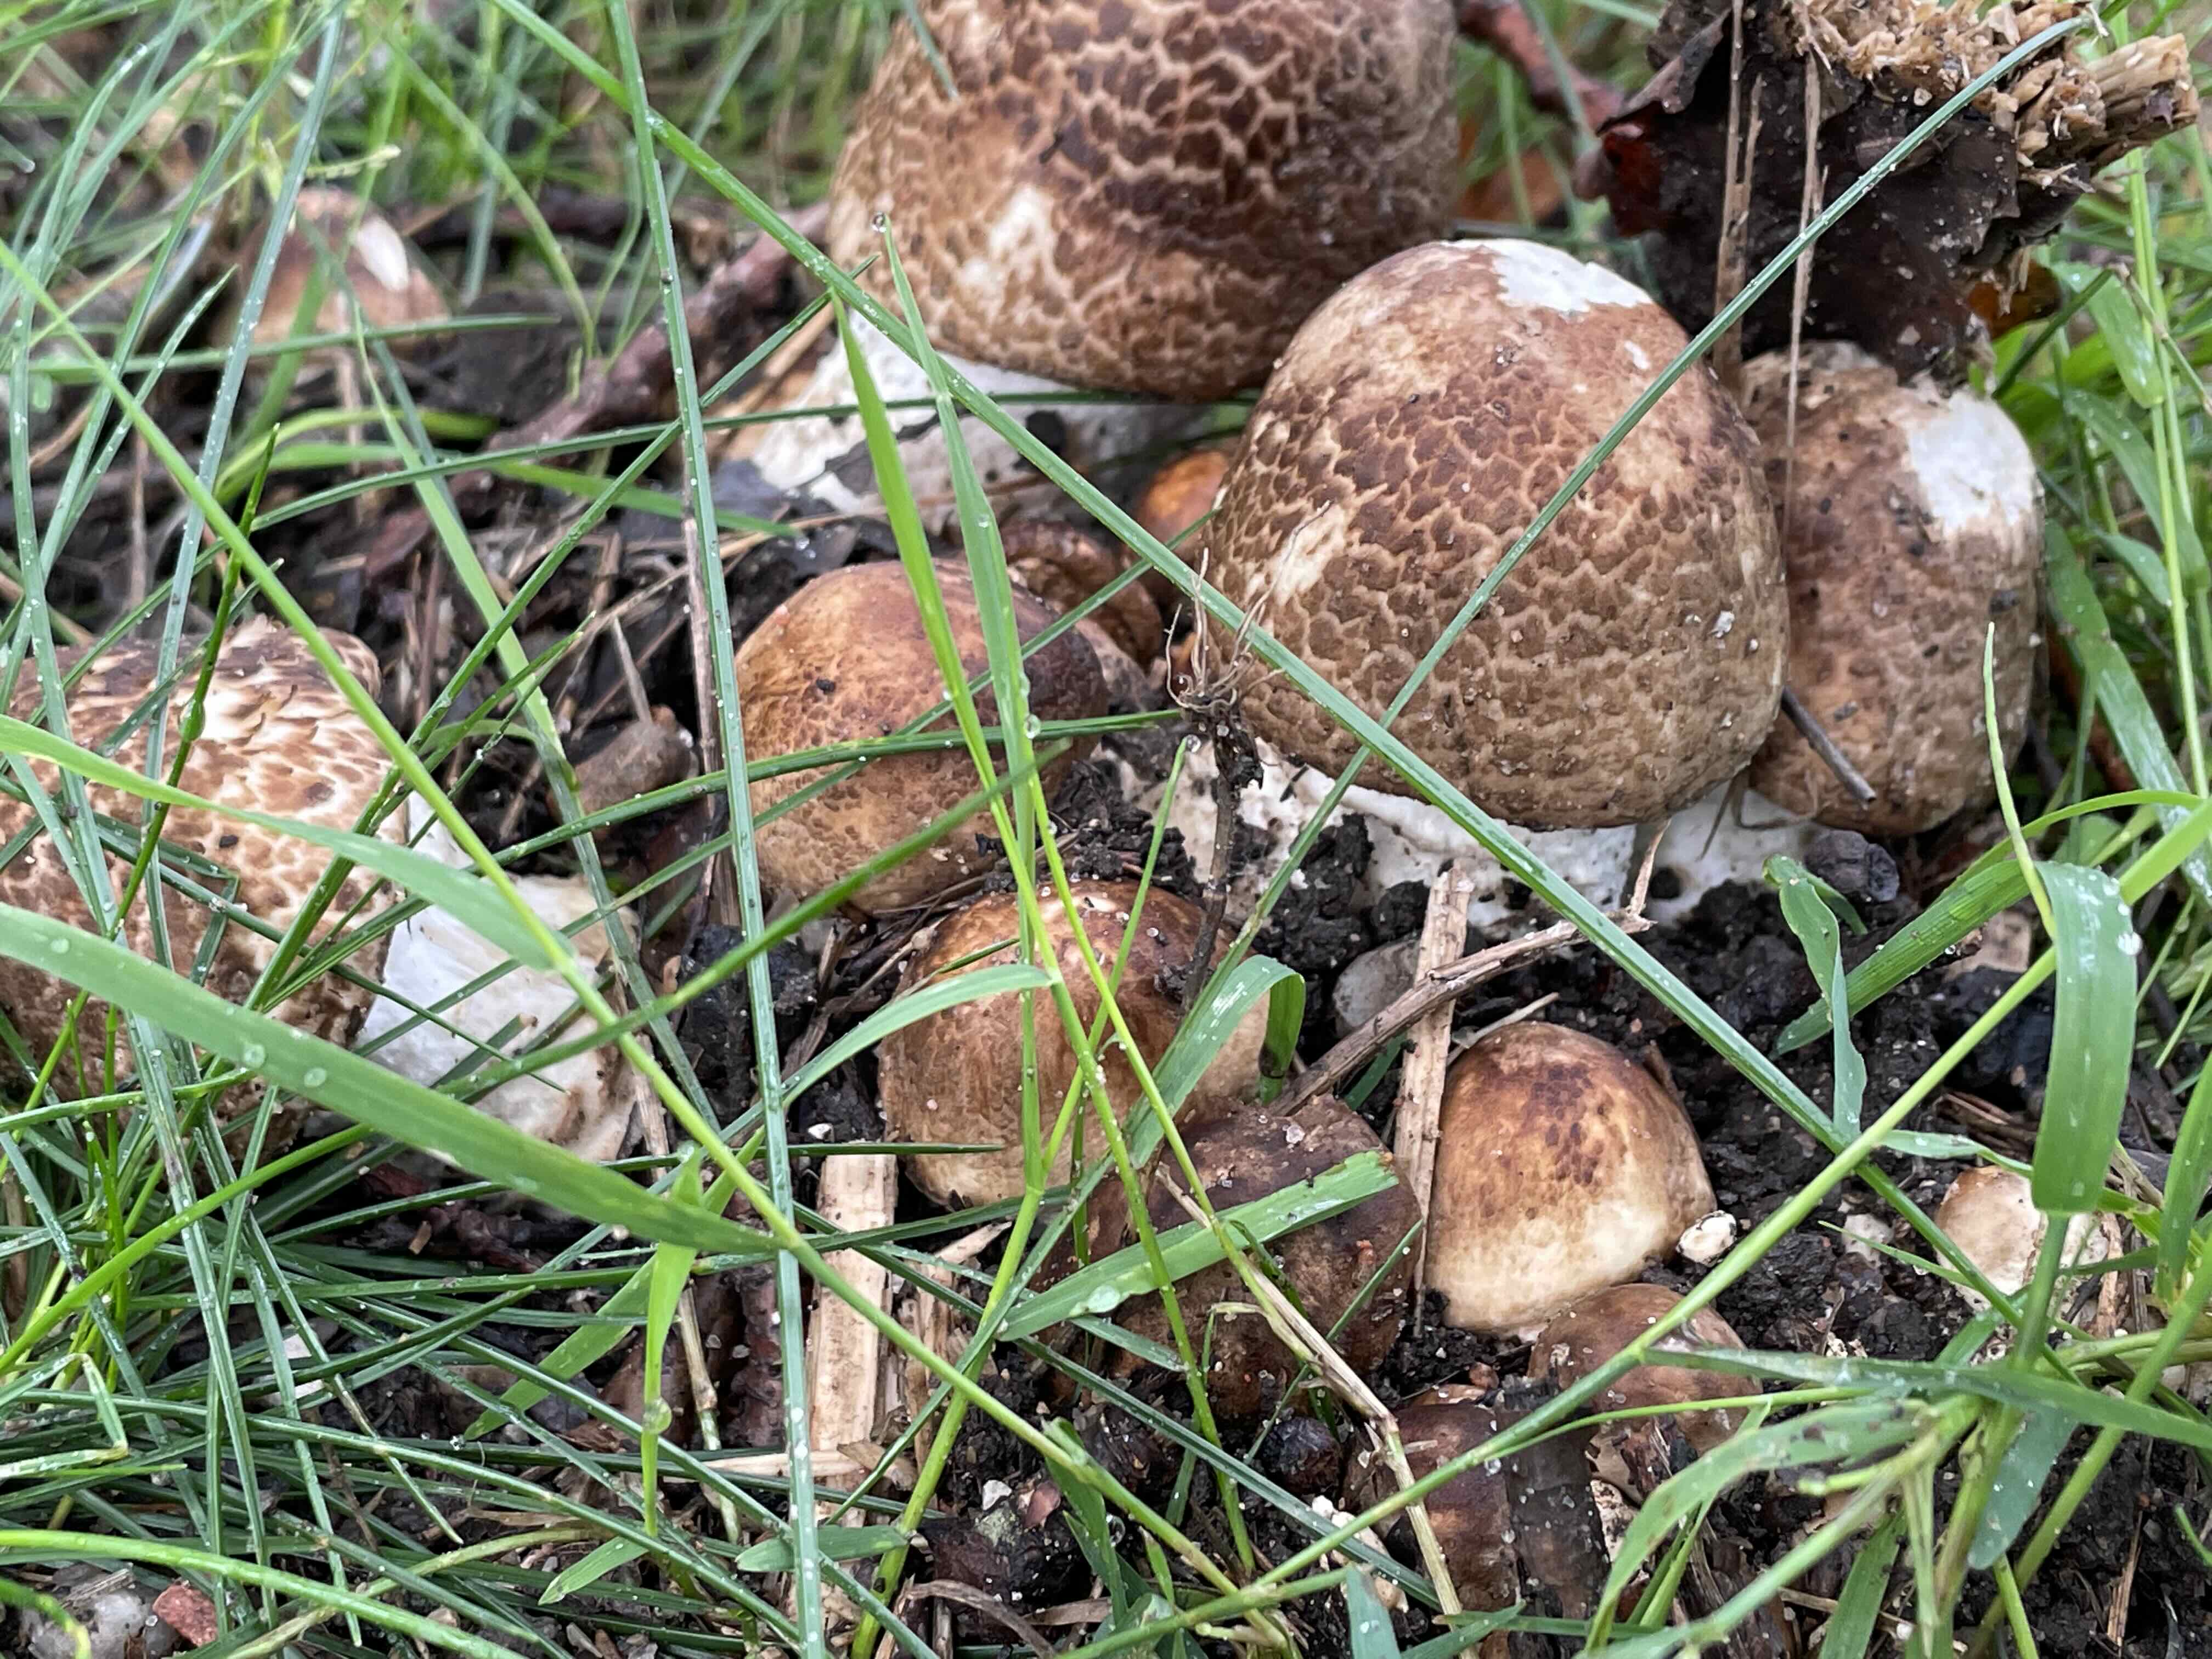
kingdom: Fungi
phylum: Basidiomycota
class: Agaricomycetes
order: Agaricales
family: Agaricaceae
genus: Agaricus
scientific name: Agaricus augustus
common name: prægtig champignon
